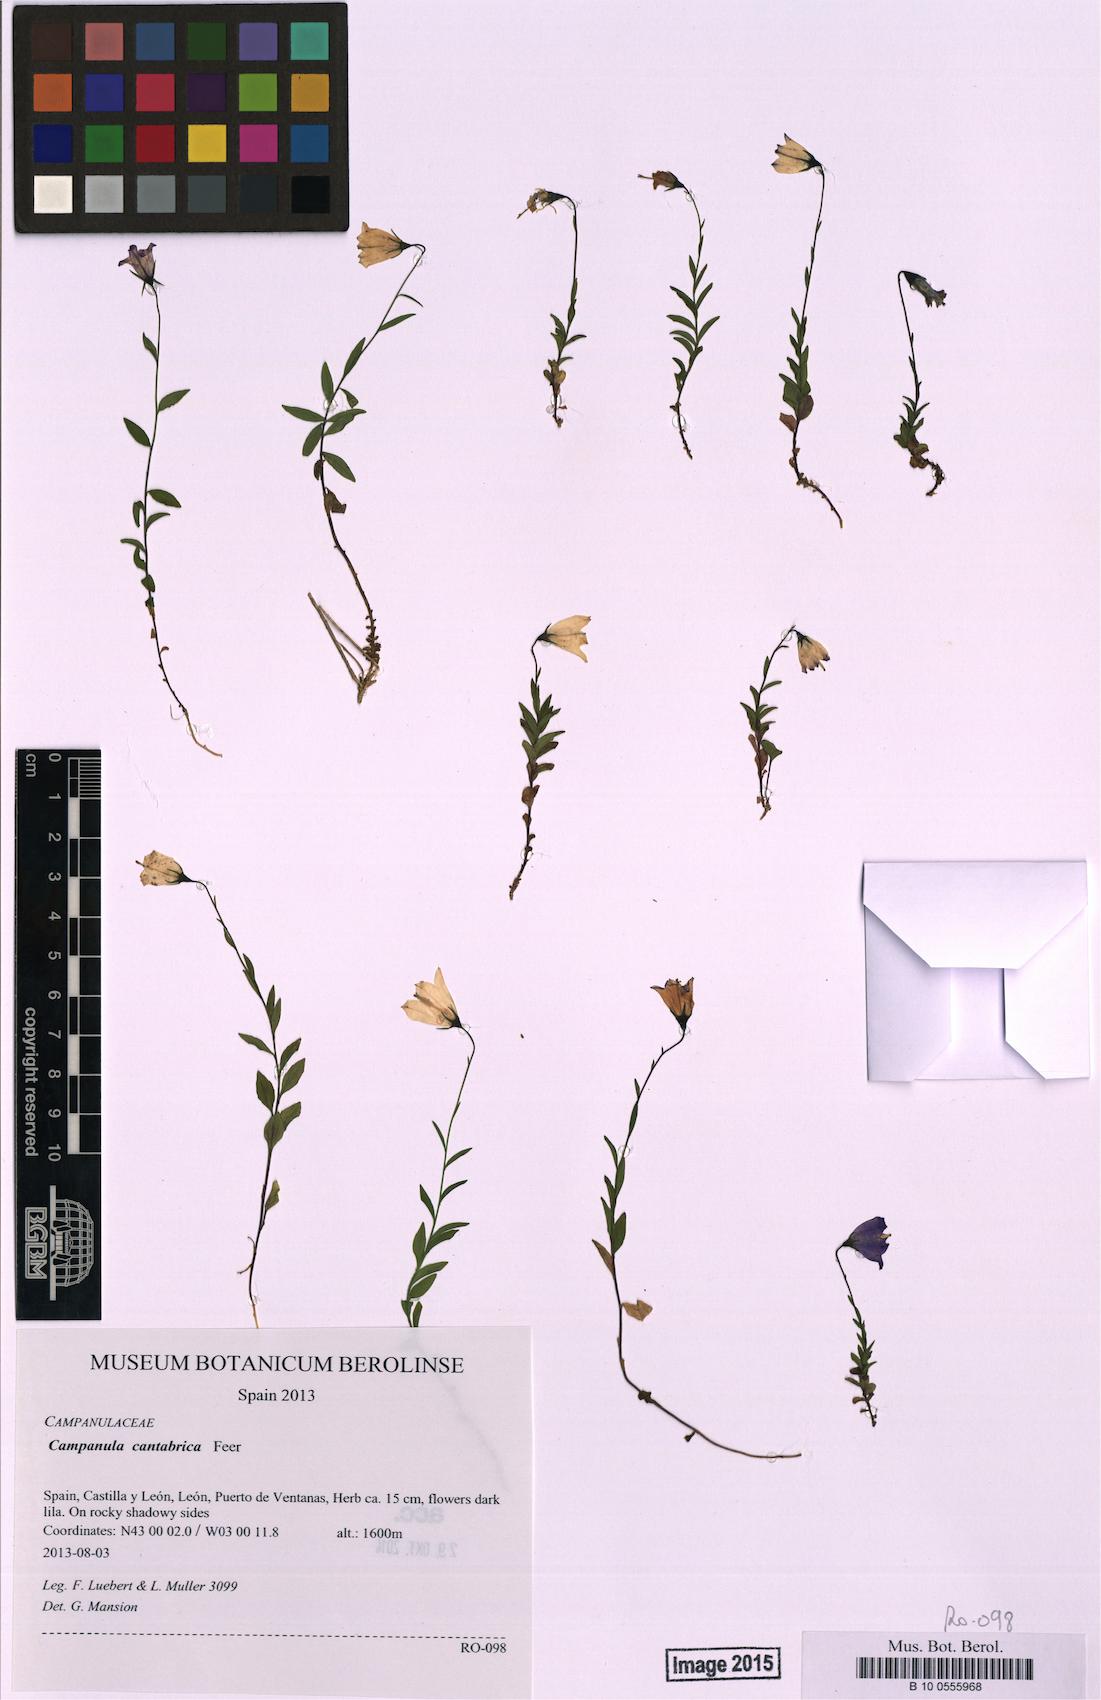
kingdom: Plantae
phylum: Tracheophyta
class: Magnoliopsida
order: Asterales
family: Campanulaceae
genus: Campanula
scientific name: Campanula cantabrica
